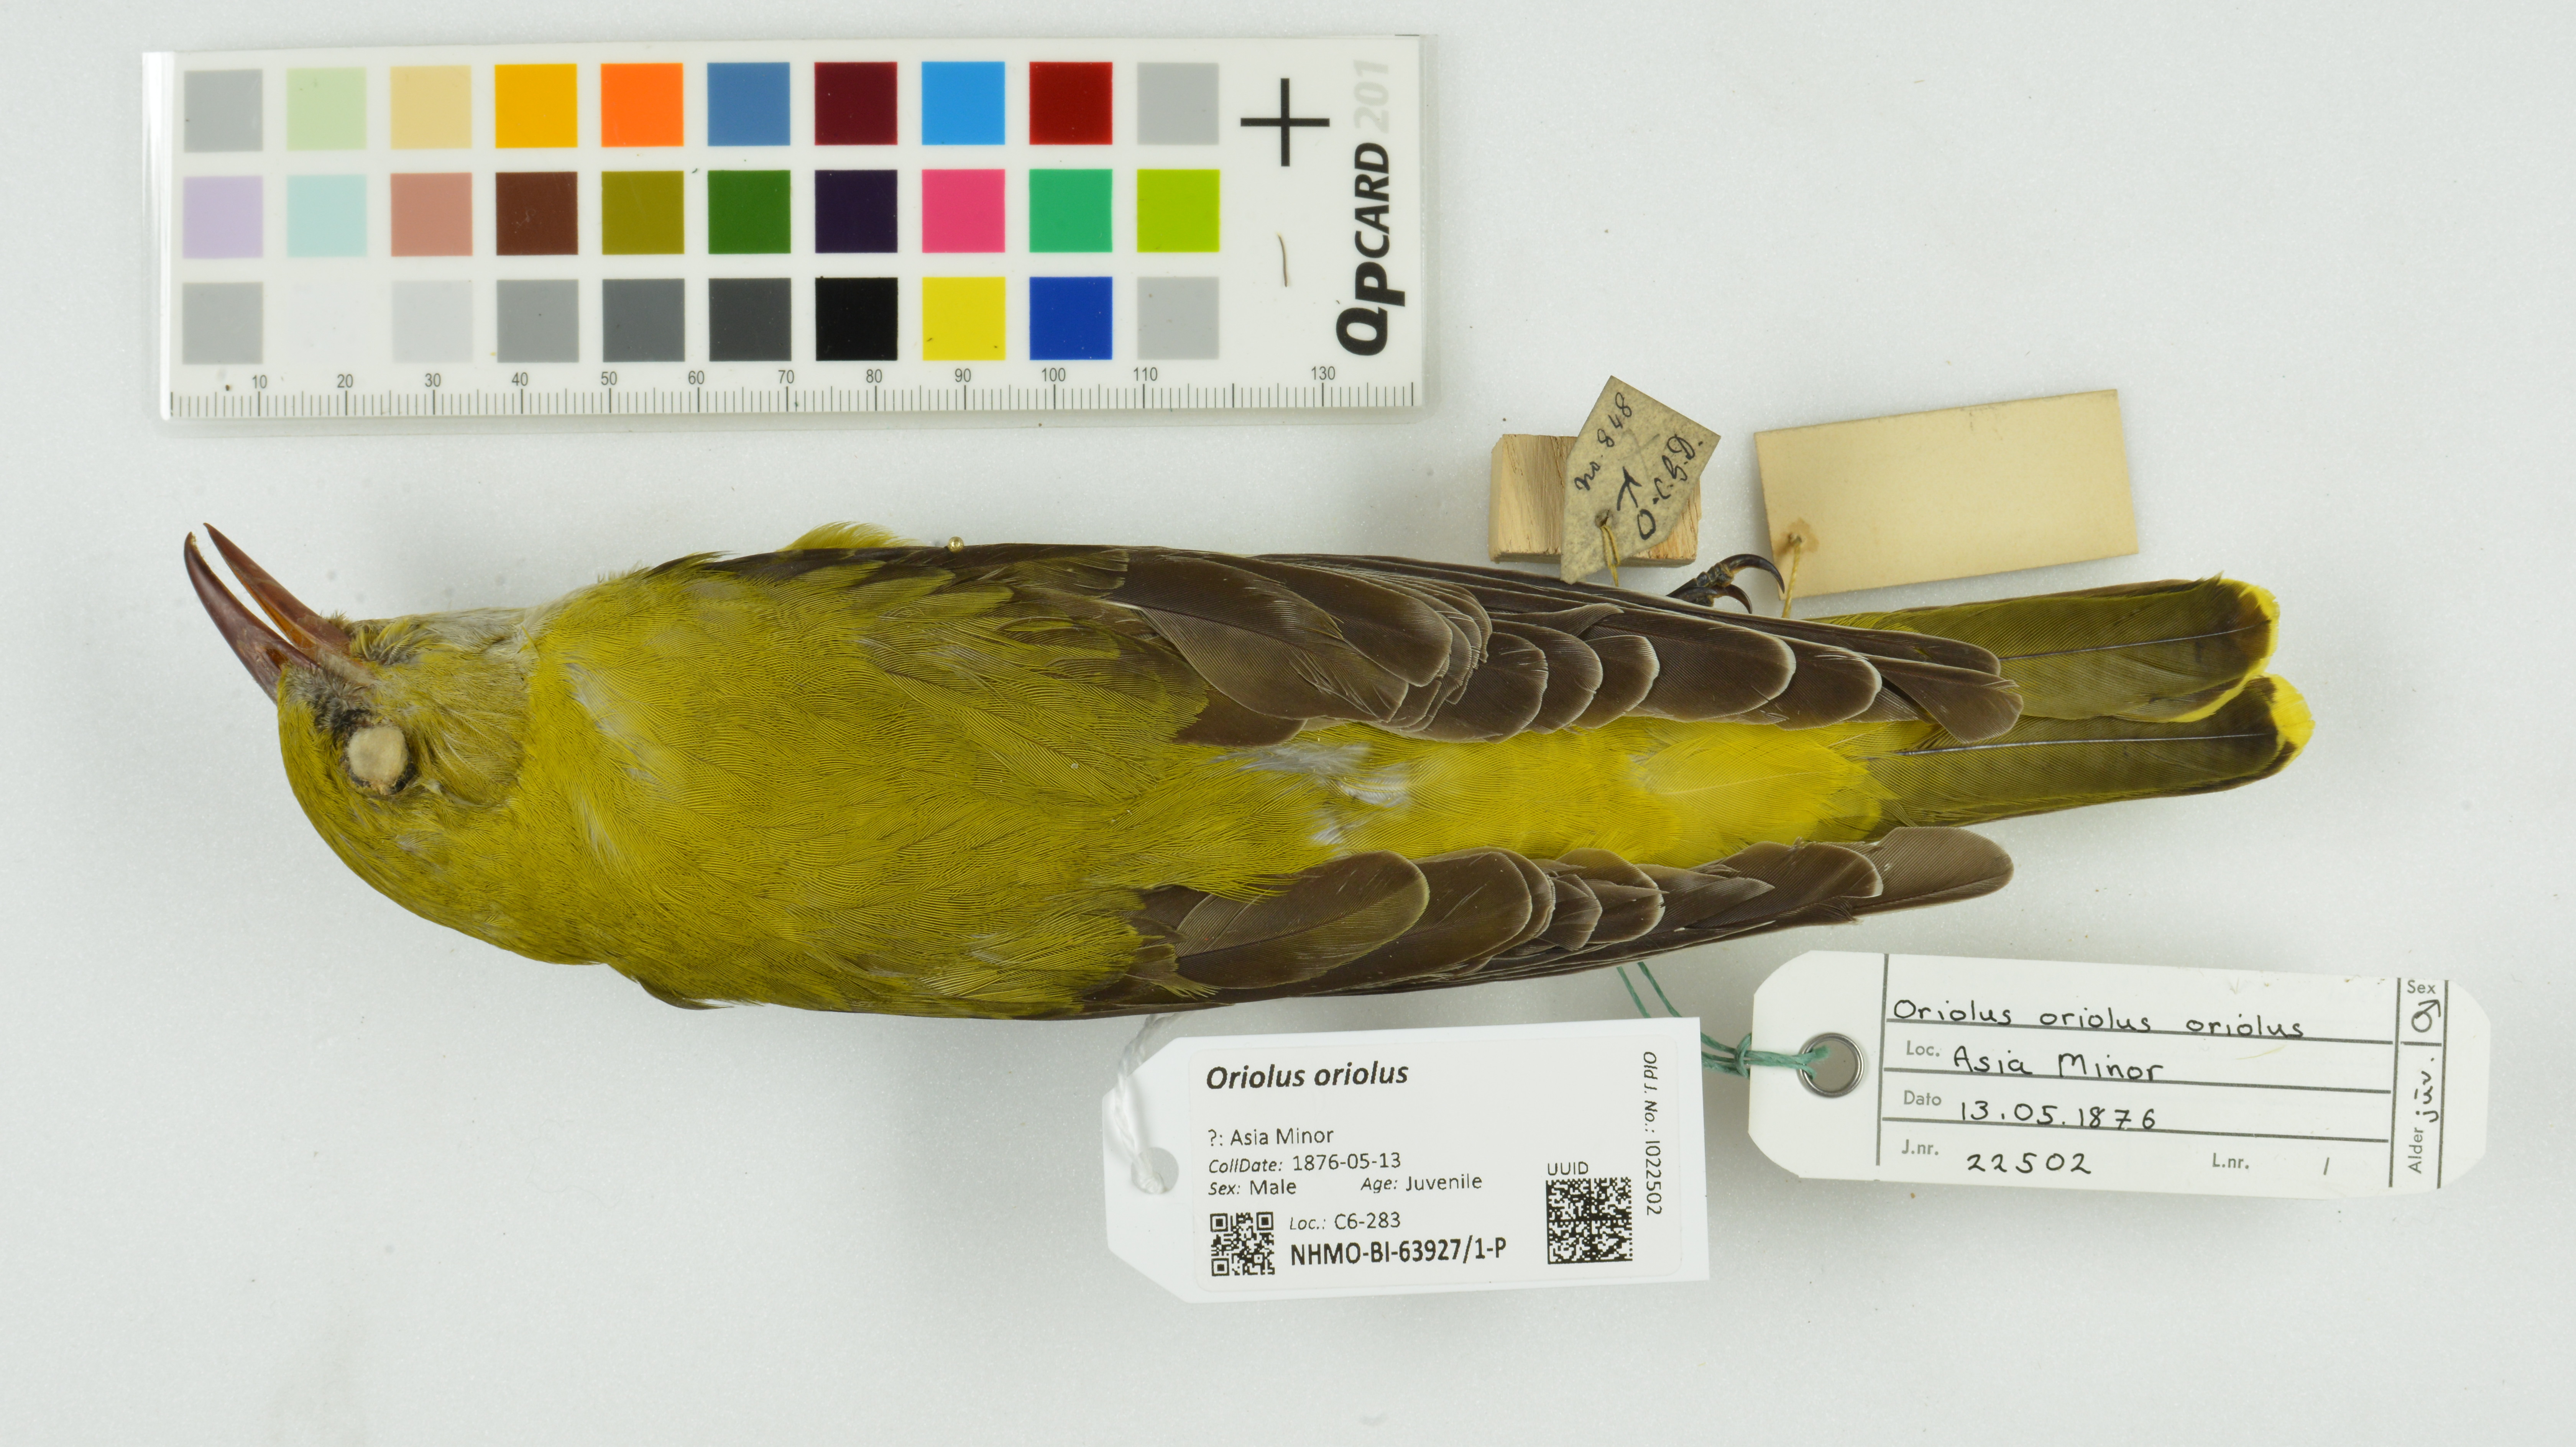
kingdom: Animalia
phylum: Chordata
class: Aves
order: Passeriformes
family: Oriolidae
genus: Oriolus
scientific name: Oriolus oriolus
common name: Eurasian golden oriole
